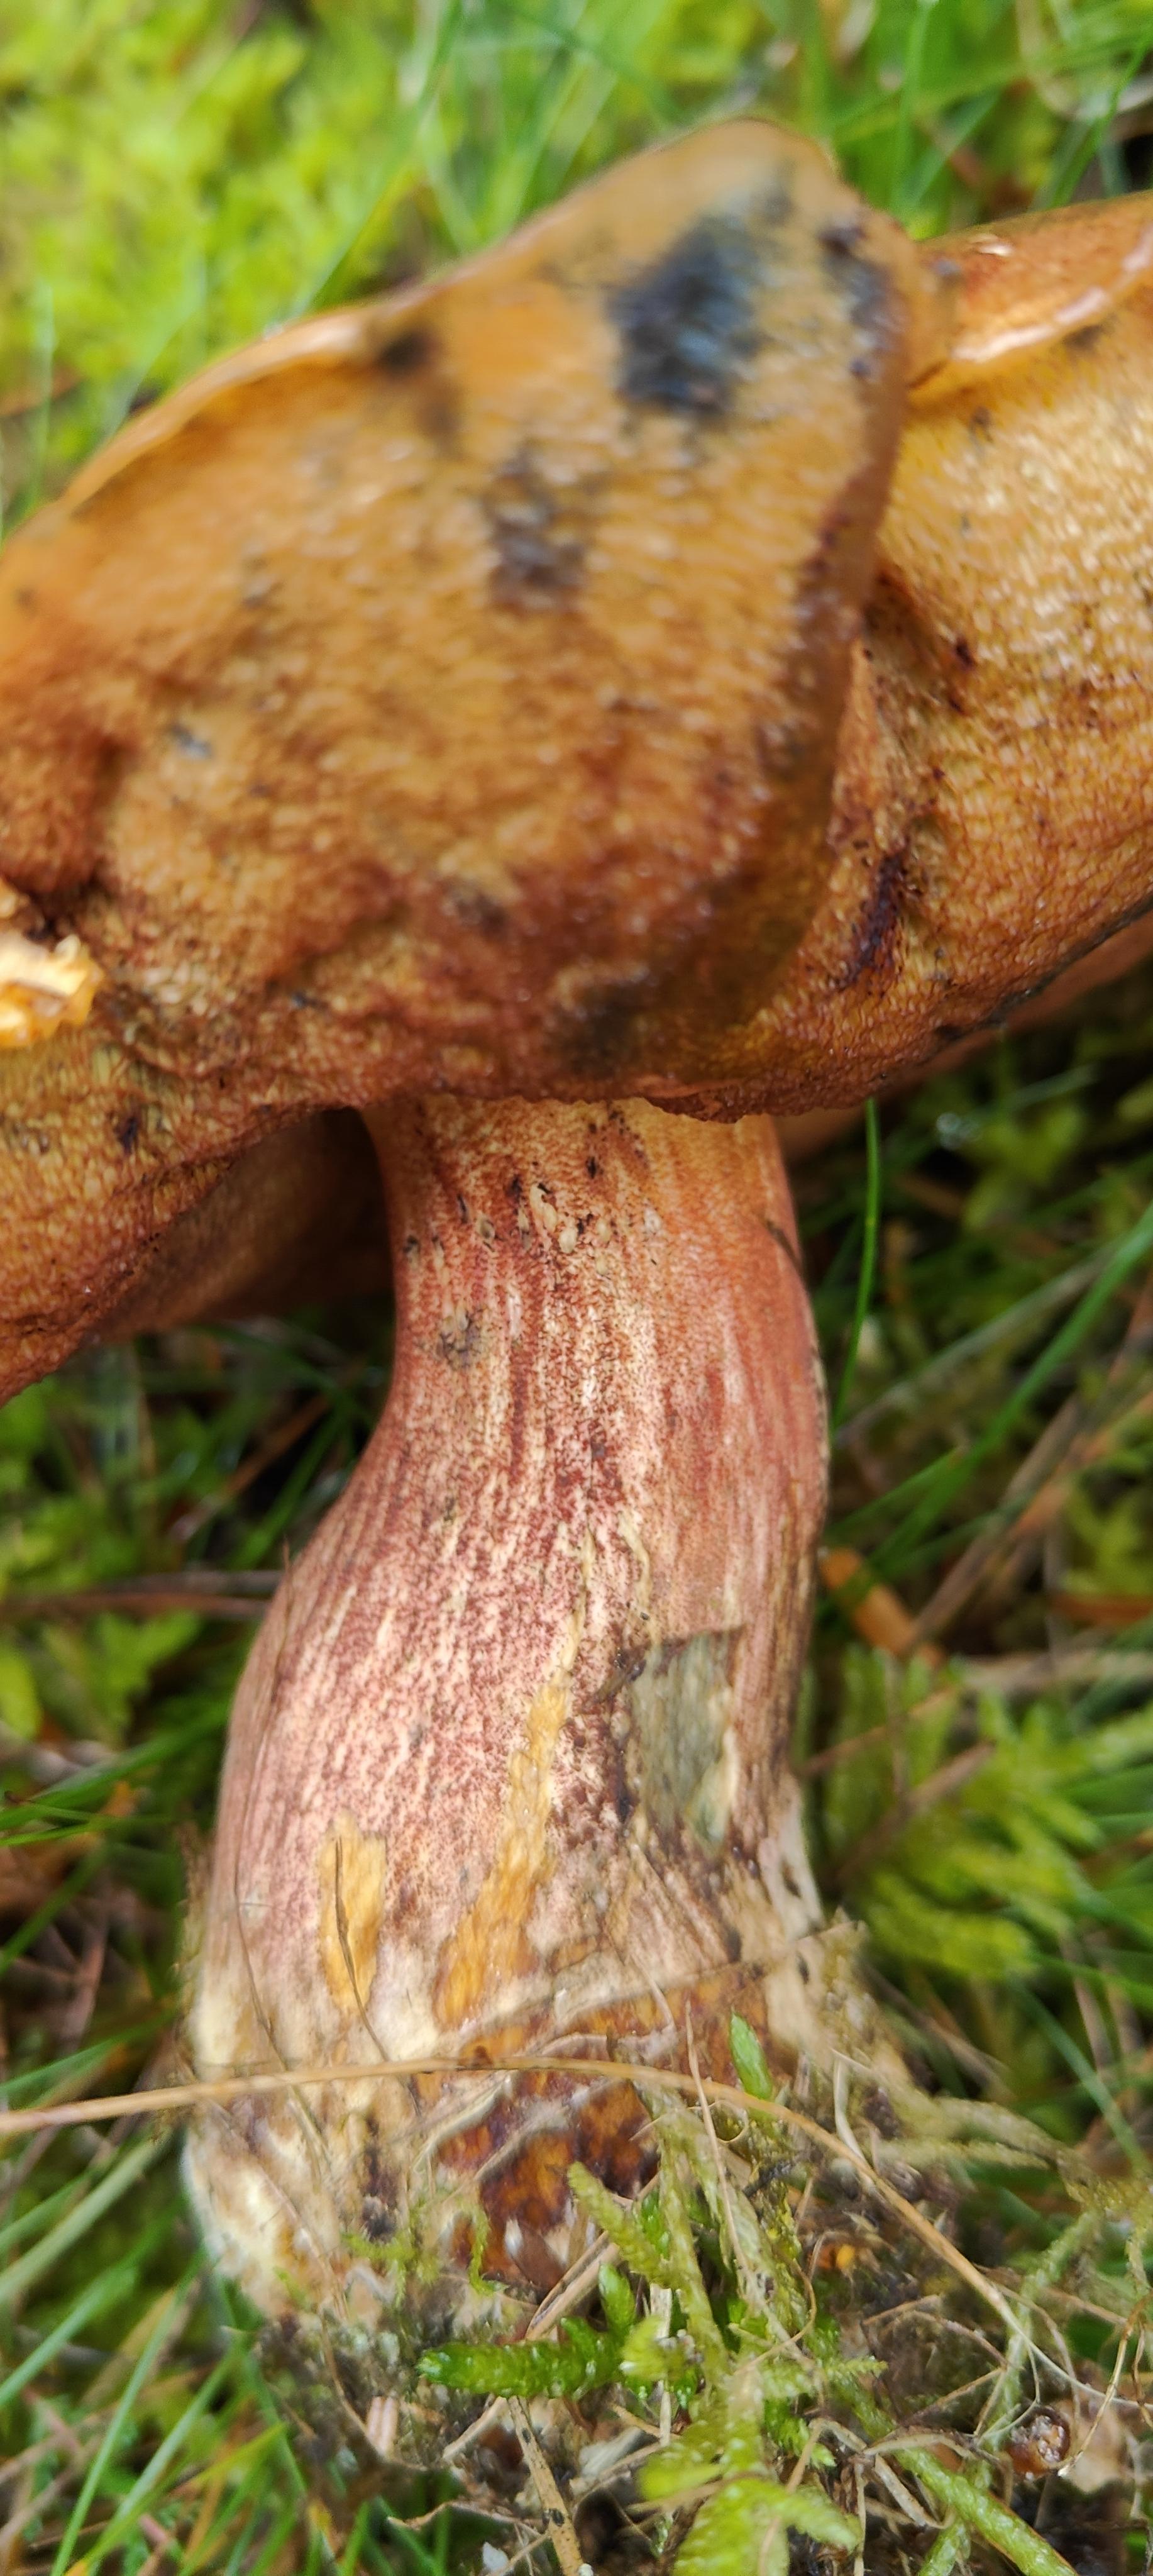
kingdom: Fungi
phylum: Basidiomycota
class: Agaricomycetes
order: Boletales
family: Boletaceae
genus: Neoboletus
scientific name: Neoboletus erythropus
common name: punktstokket indigorørhat
